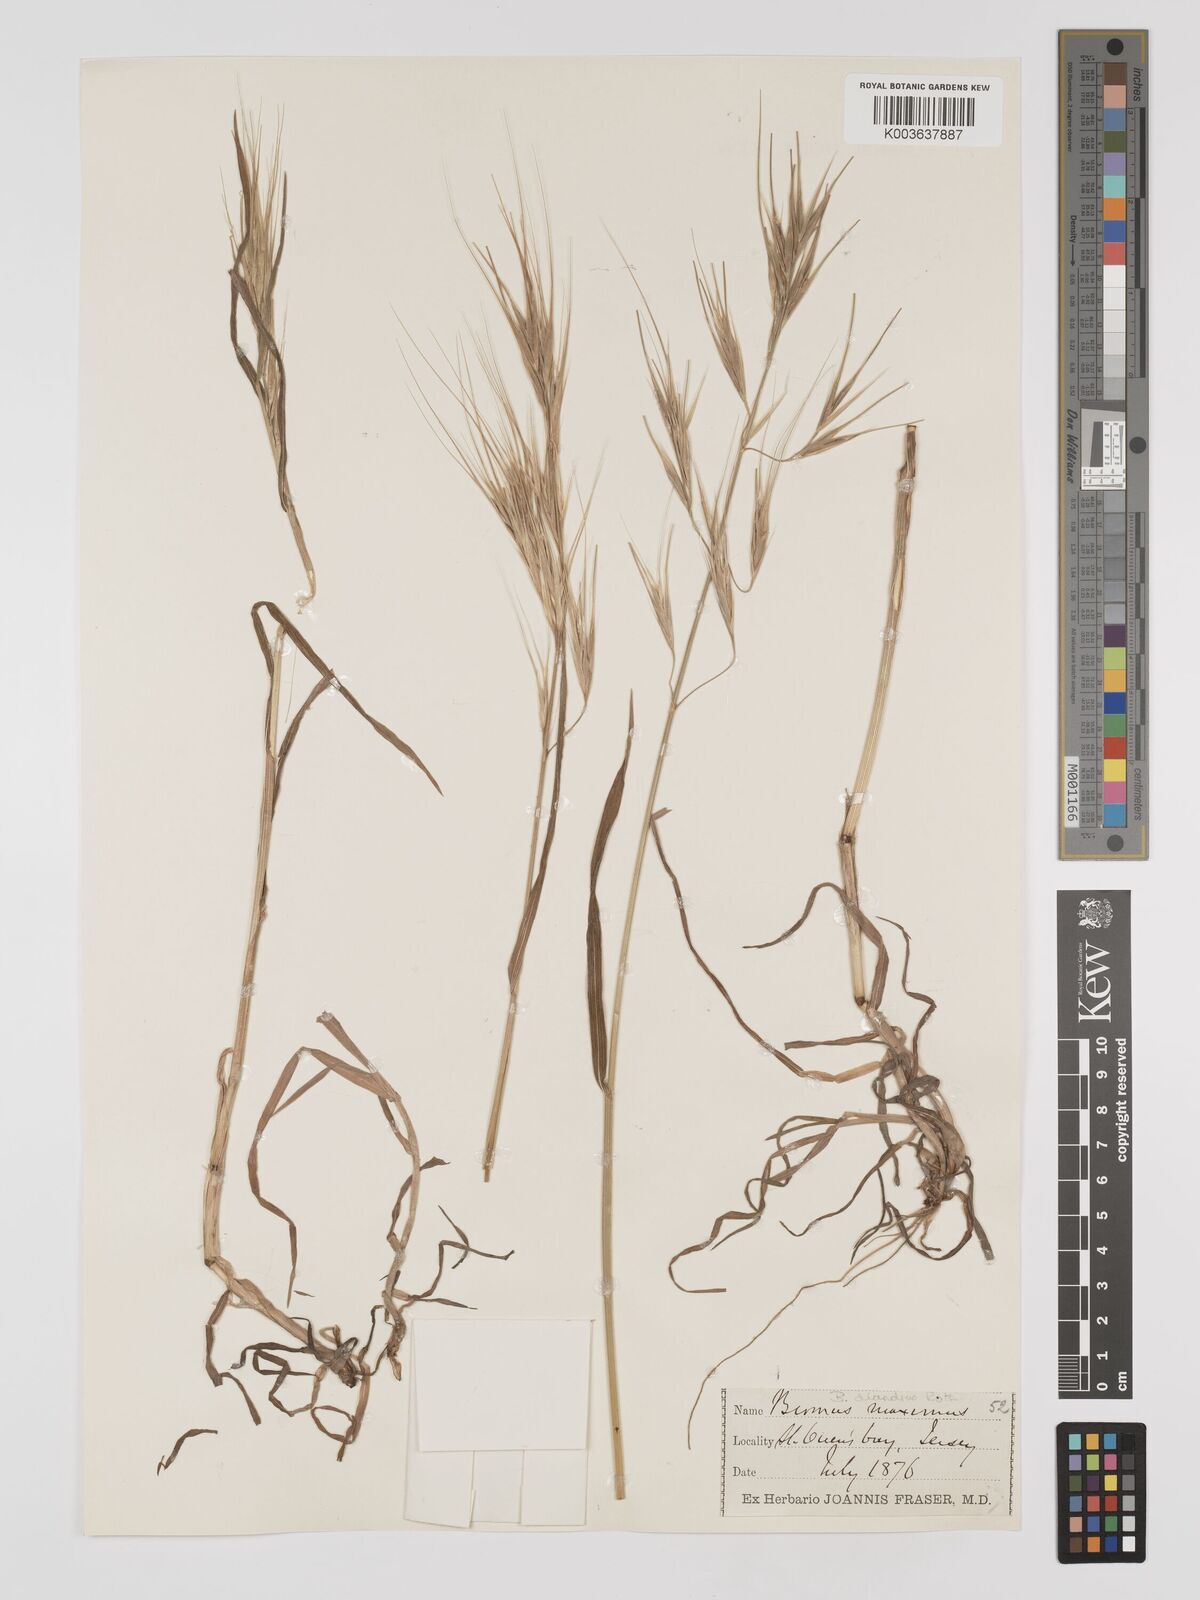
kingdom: Plantae
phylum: Tracheophyta
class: Liliopsida
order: Poales
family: Poaceae
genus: Bromus
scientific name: Bromus
